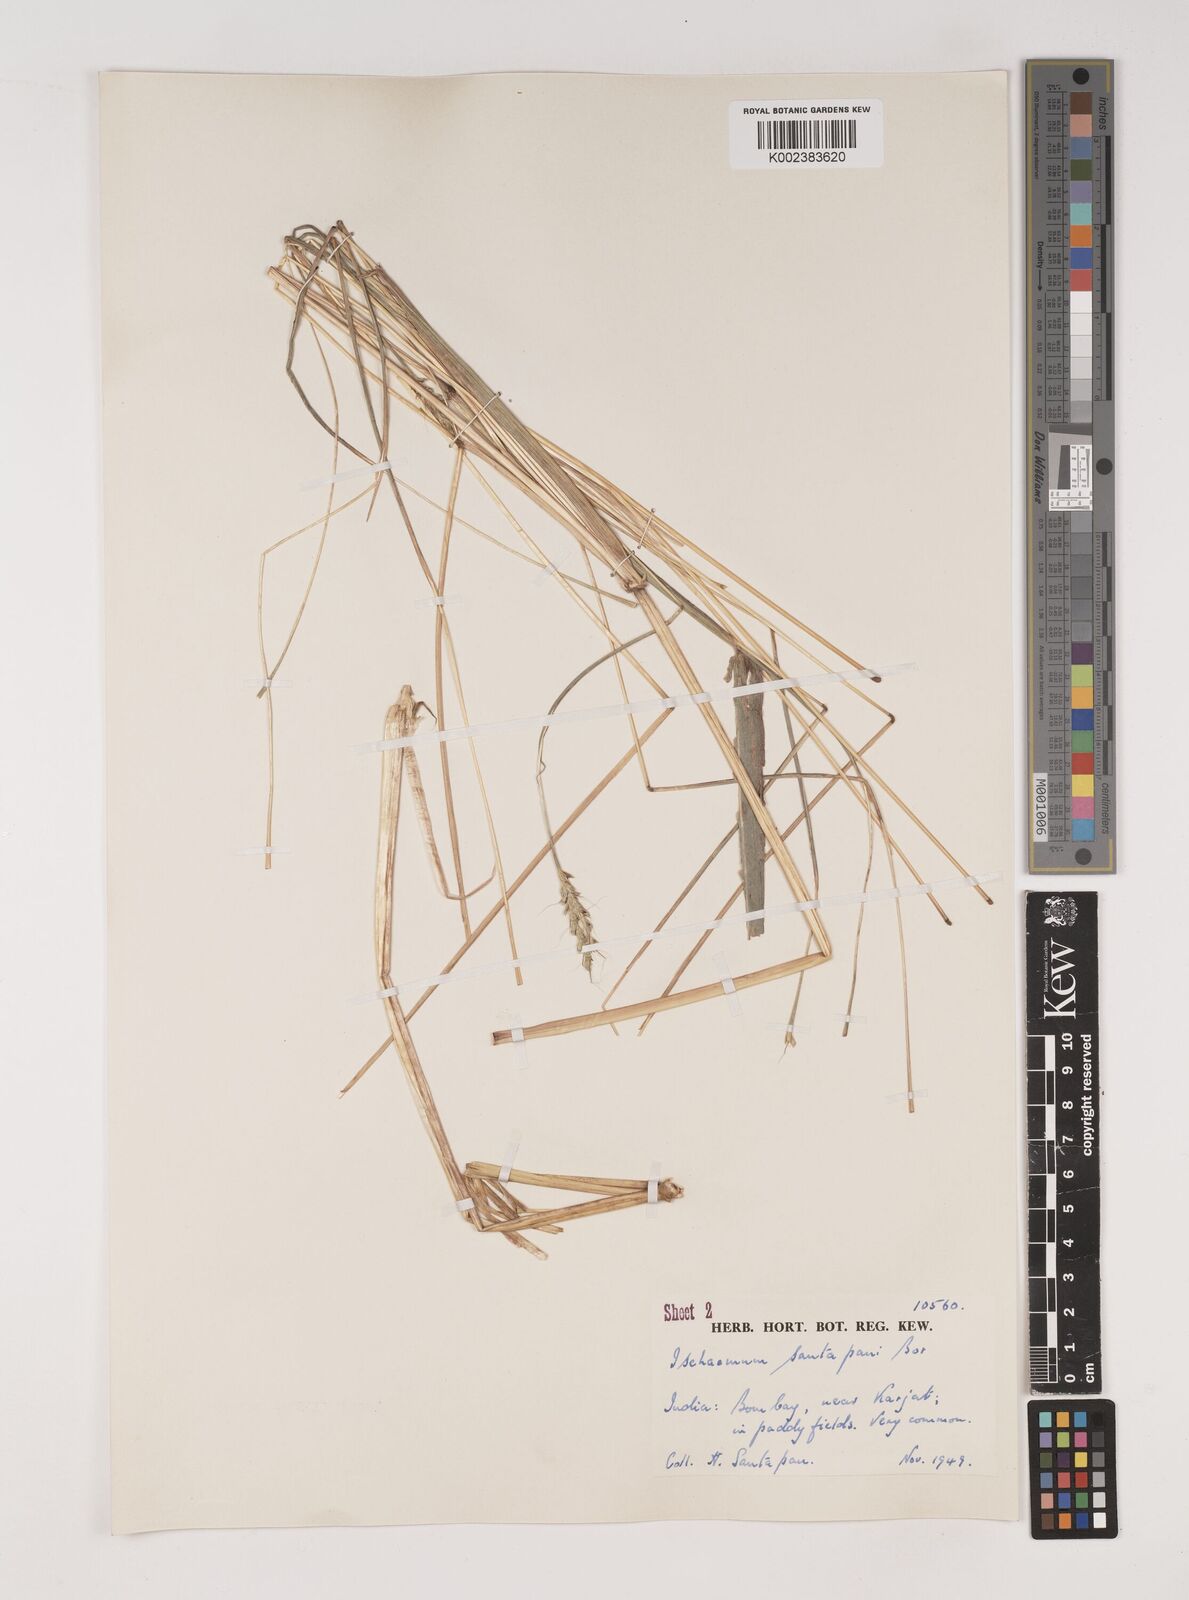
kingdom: Plantae
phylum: Tracheophyta
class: Liliopsida
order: Poales
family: Poaceae
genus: Ischaemum
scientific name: Ischaemum santapaui
